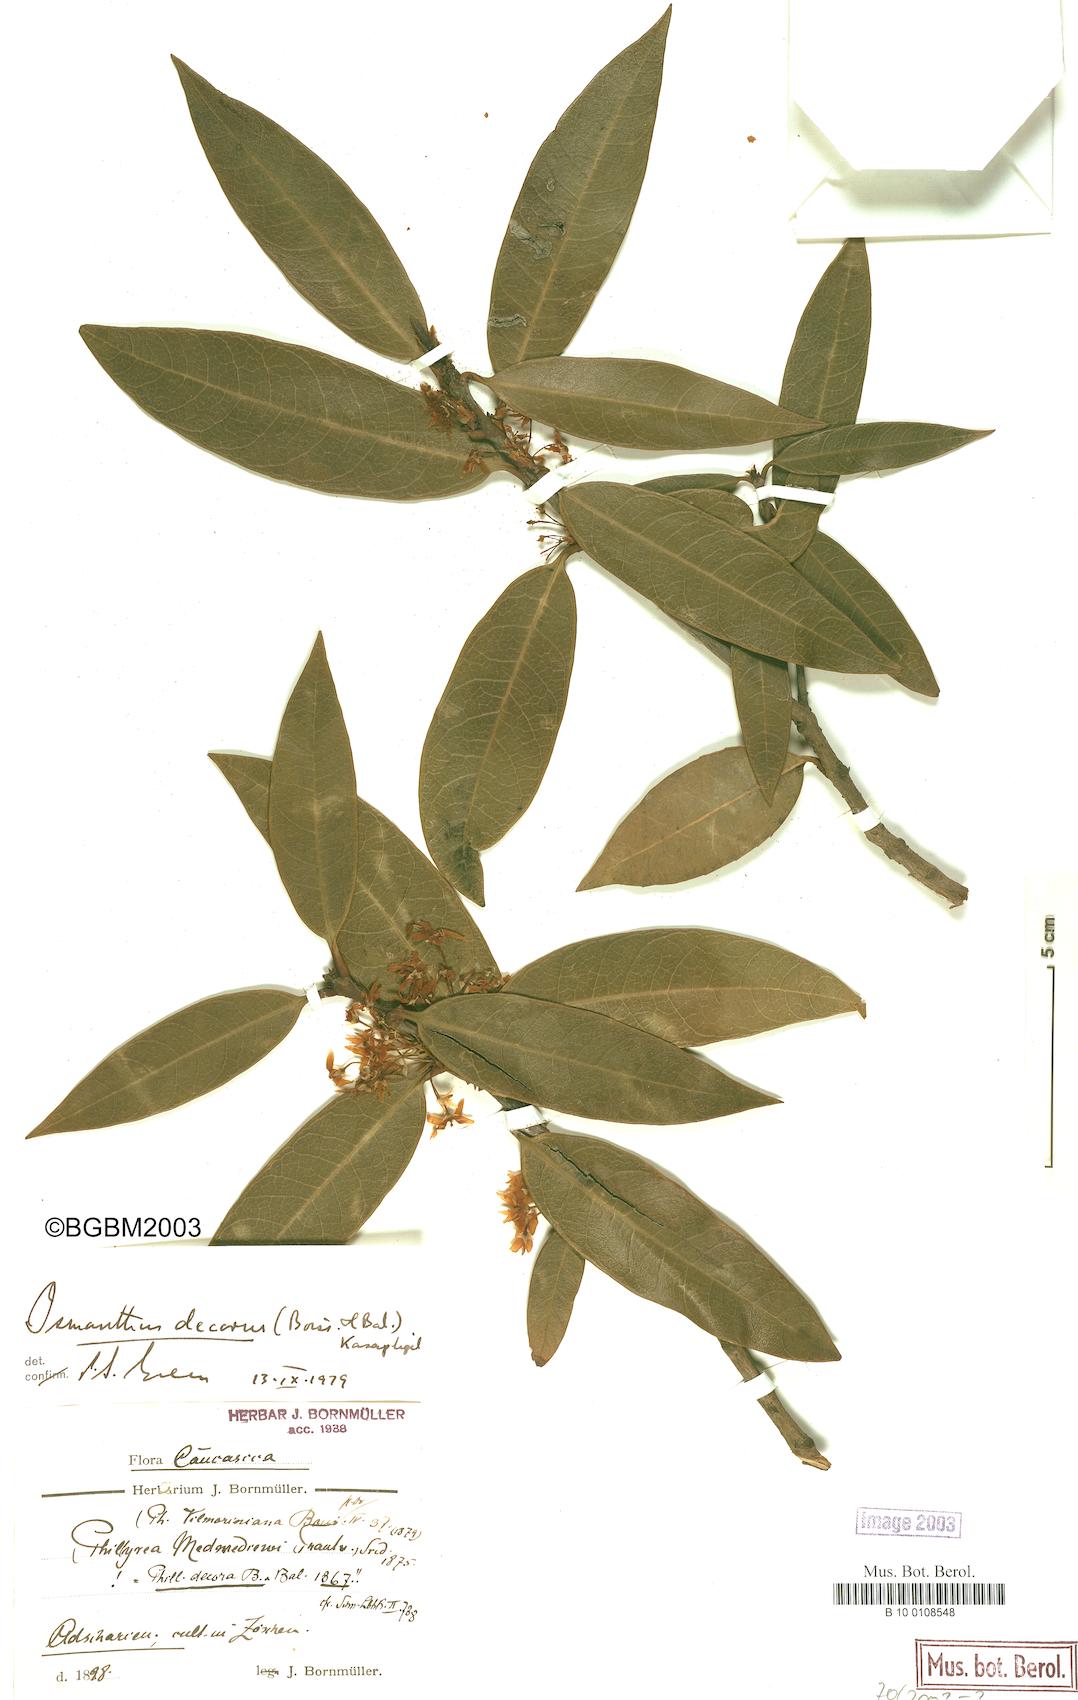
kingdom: Plantae
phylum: Tracheophyta
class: Magnoliopsida
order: Lamiales
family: Oleaceae
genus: Osmanthus
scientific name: Osmanthus decorus
